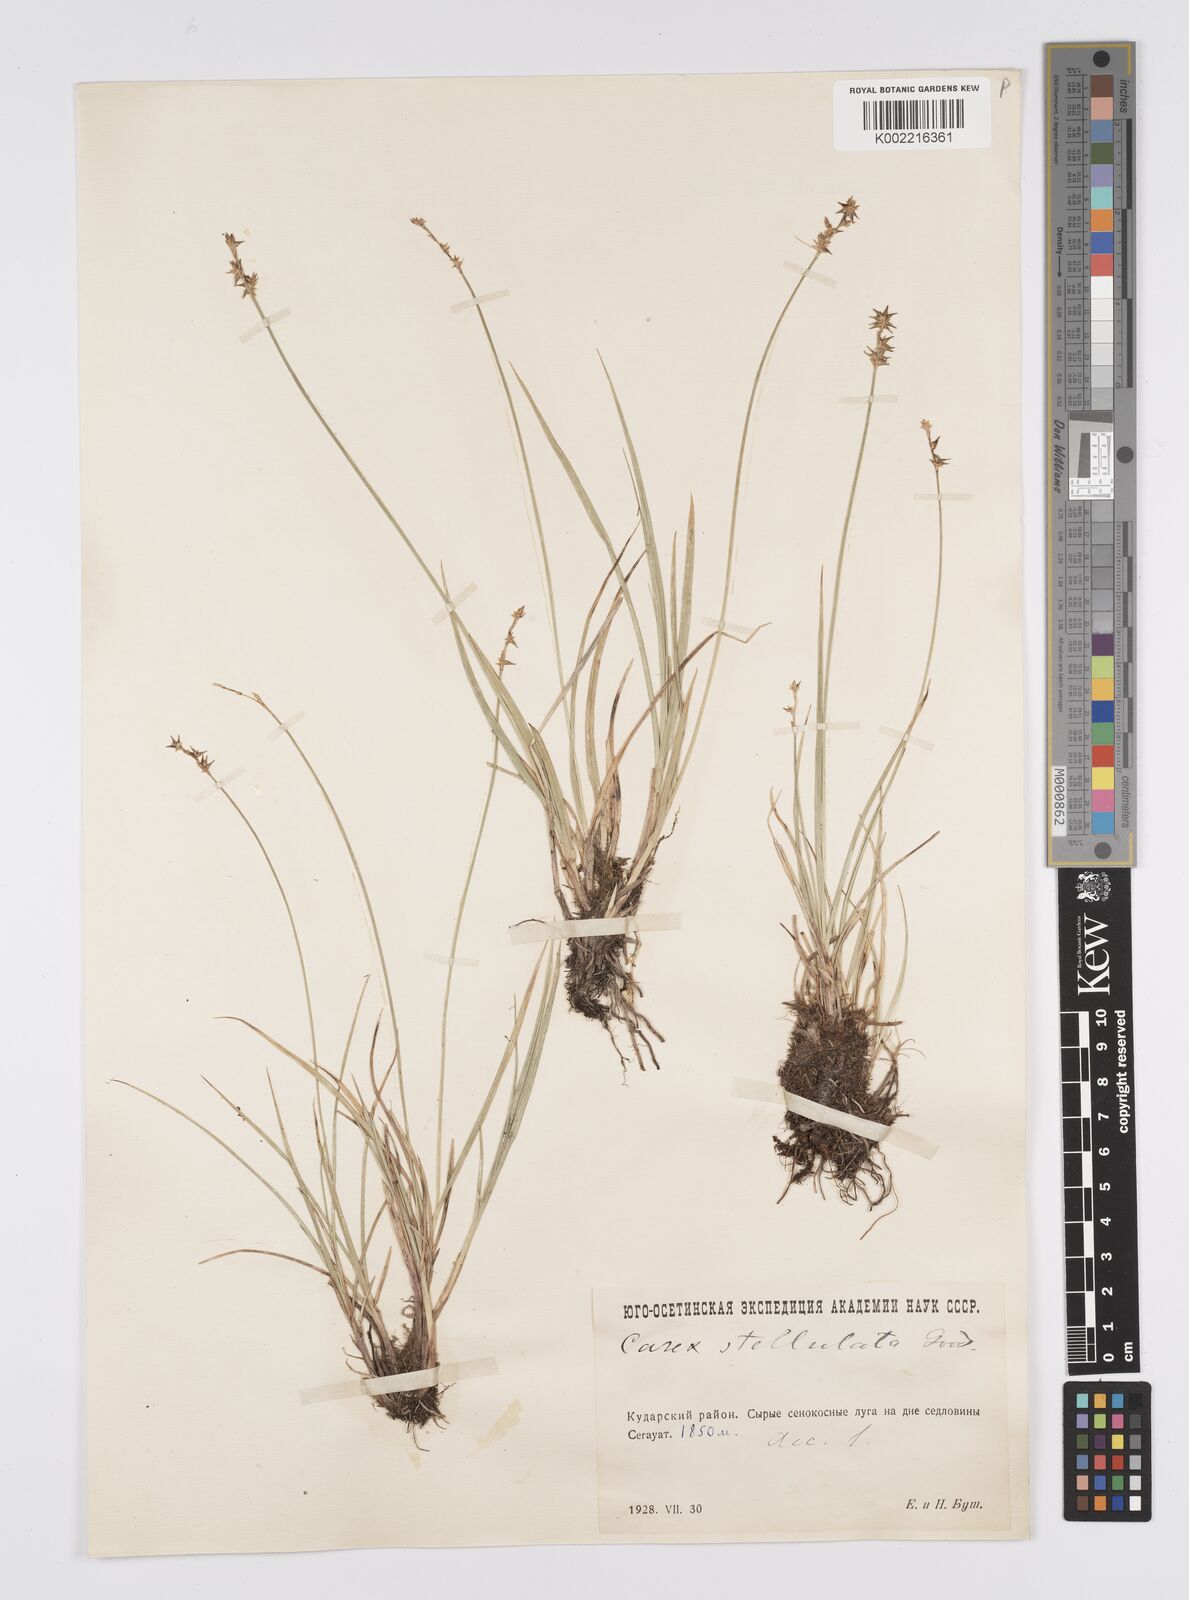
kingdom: Plantae
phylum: Tracheophyta
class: Liliopsida
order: Poales
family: Cyperaceae
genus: Carex
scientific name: Carex echinata
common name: Star sedge
